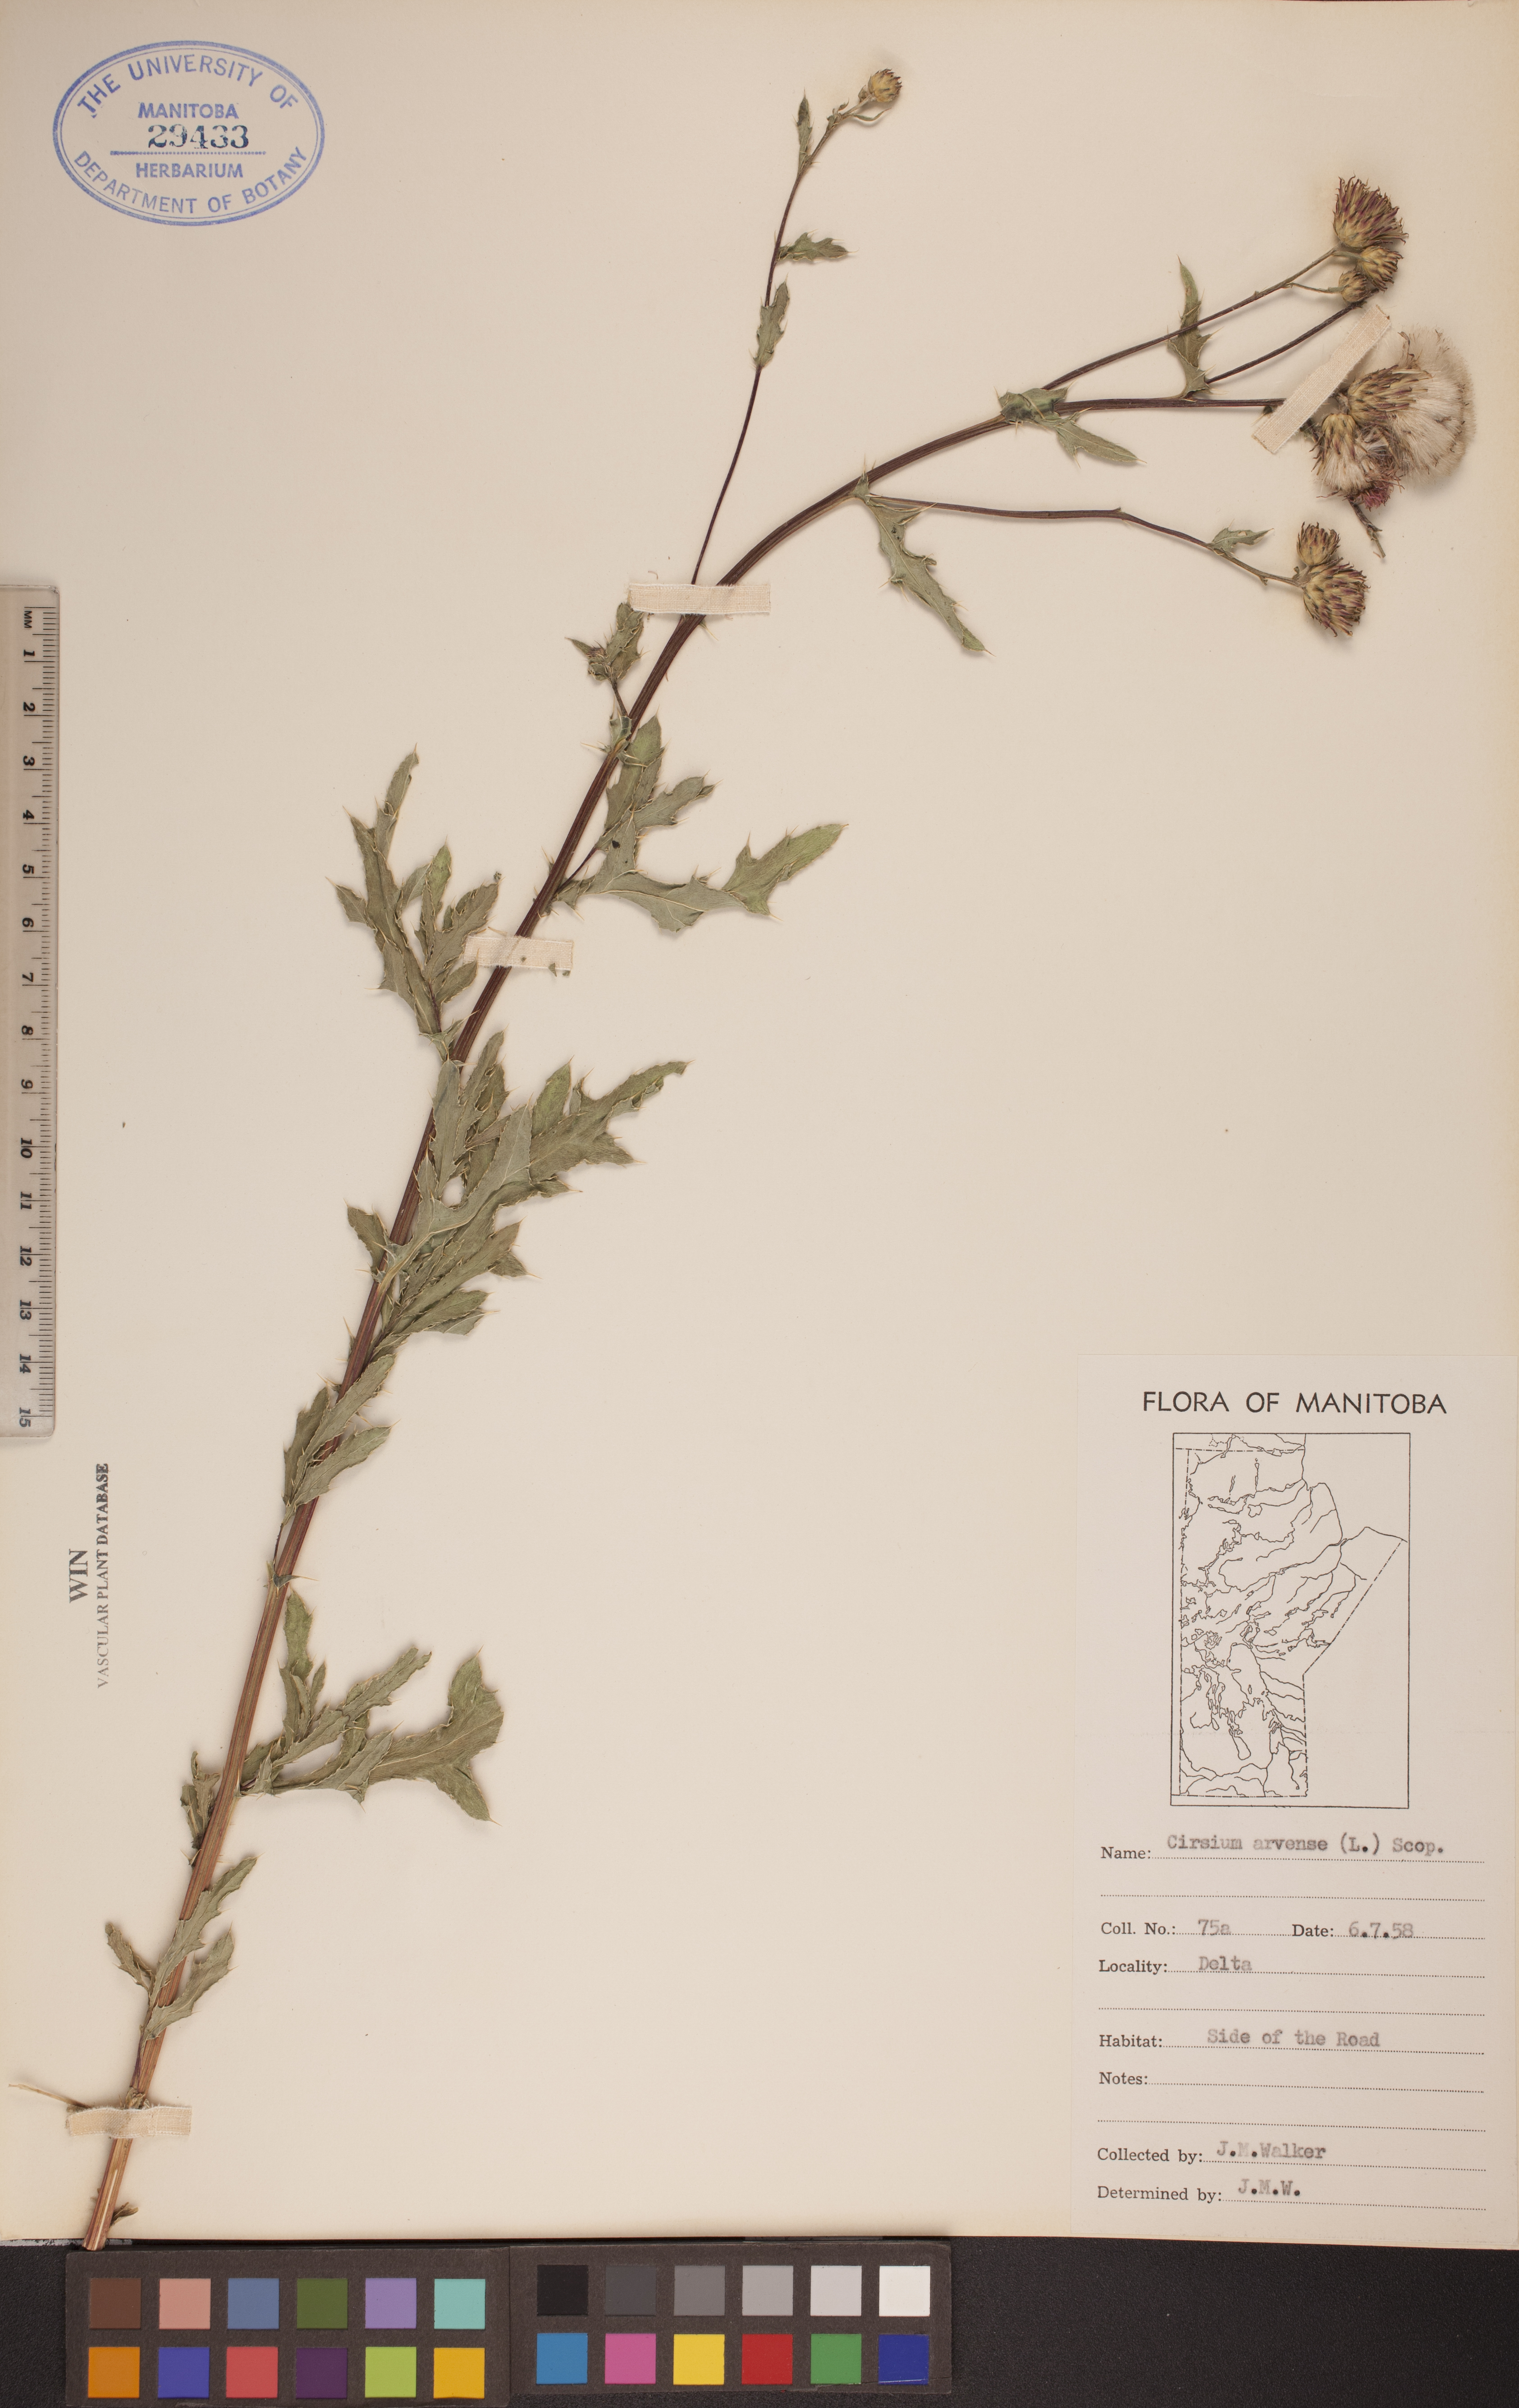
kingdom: Plantae
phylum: Tracheophyta
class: Magnoliopsida
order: Asterales
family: Asteraceae
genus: Cirsium
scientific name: Cirsium arvense
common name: Creeping thistle
